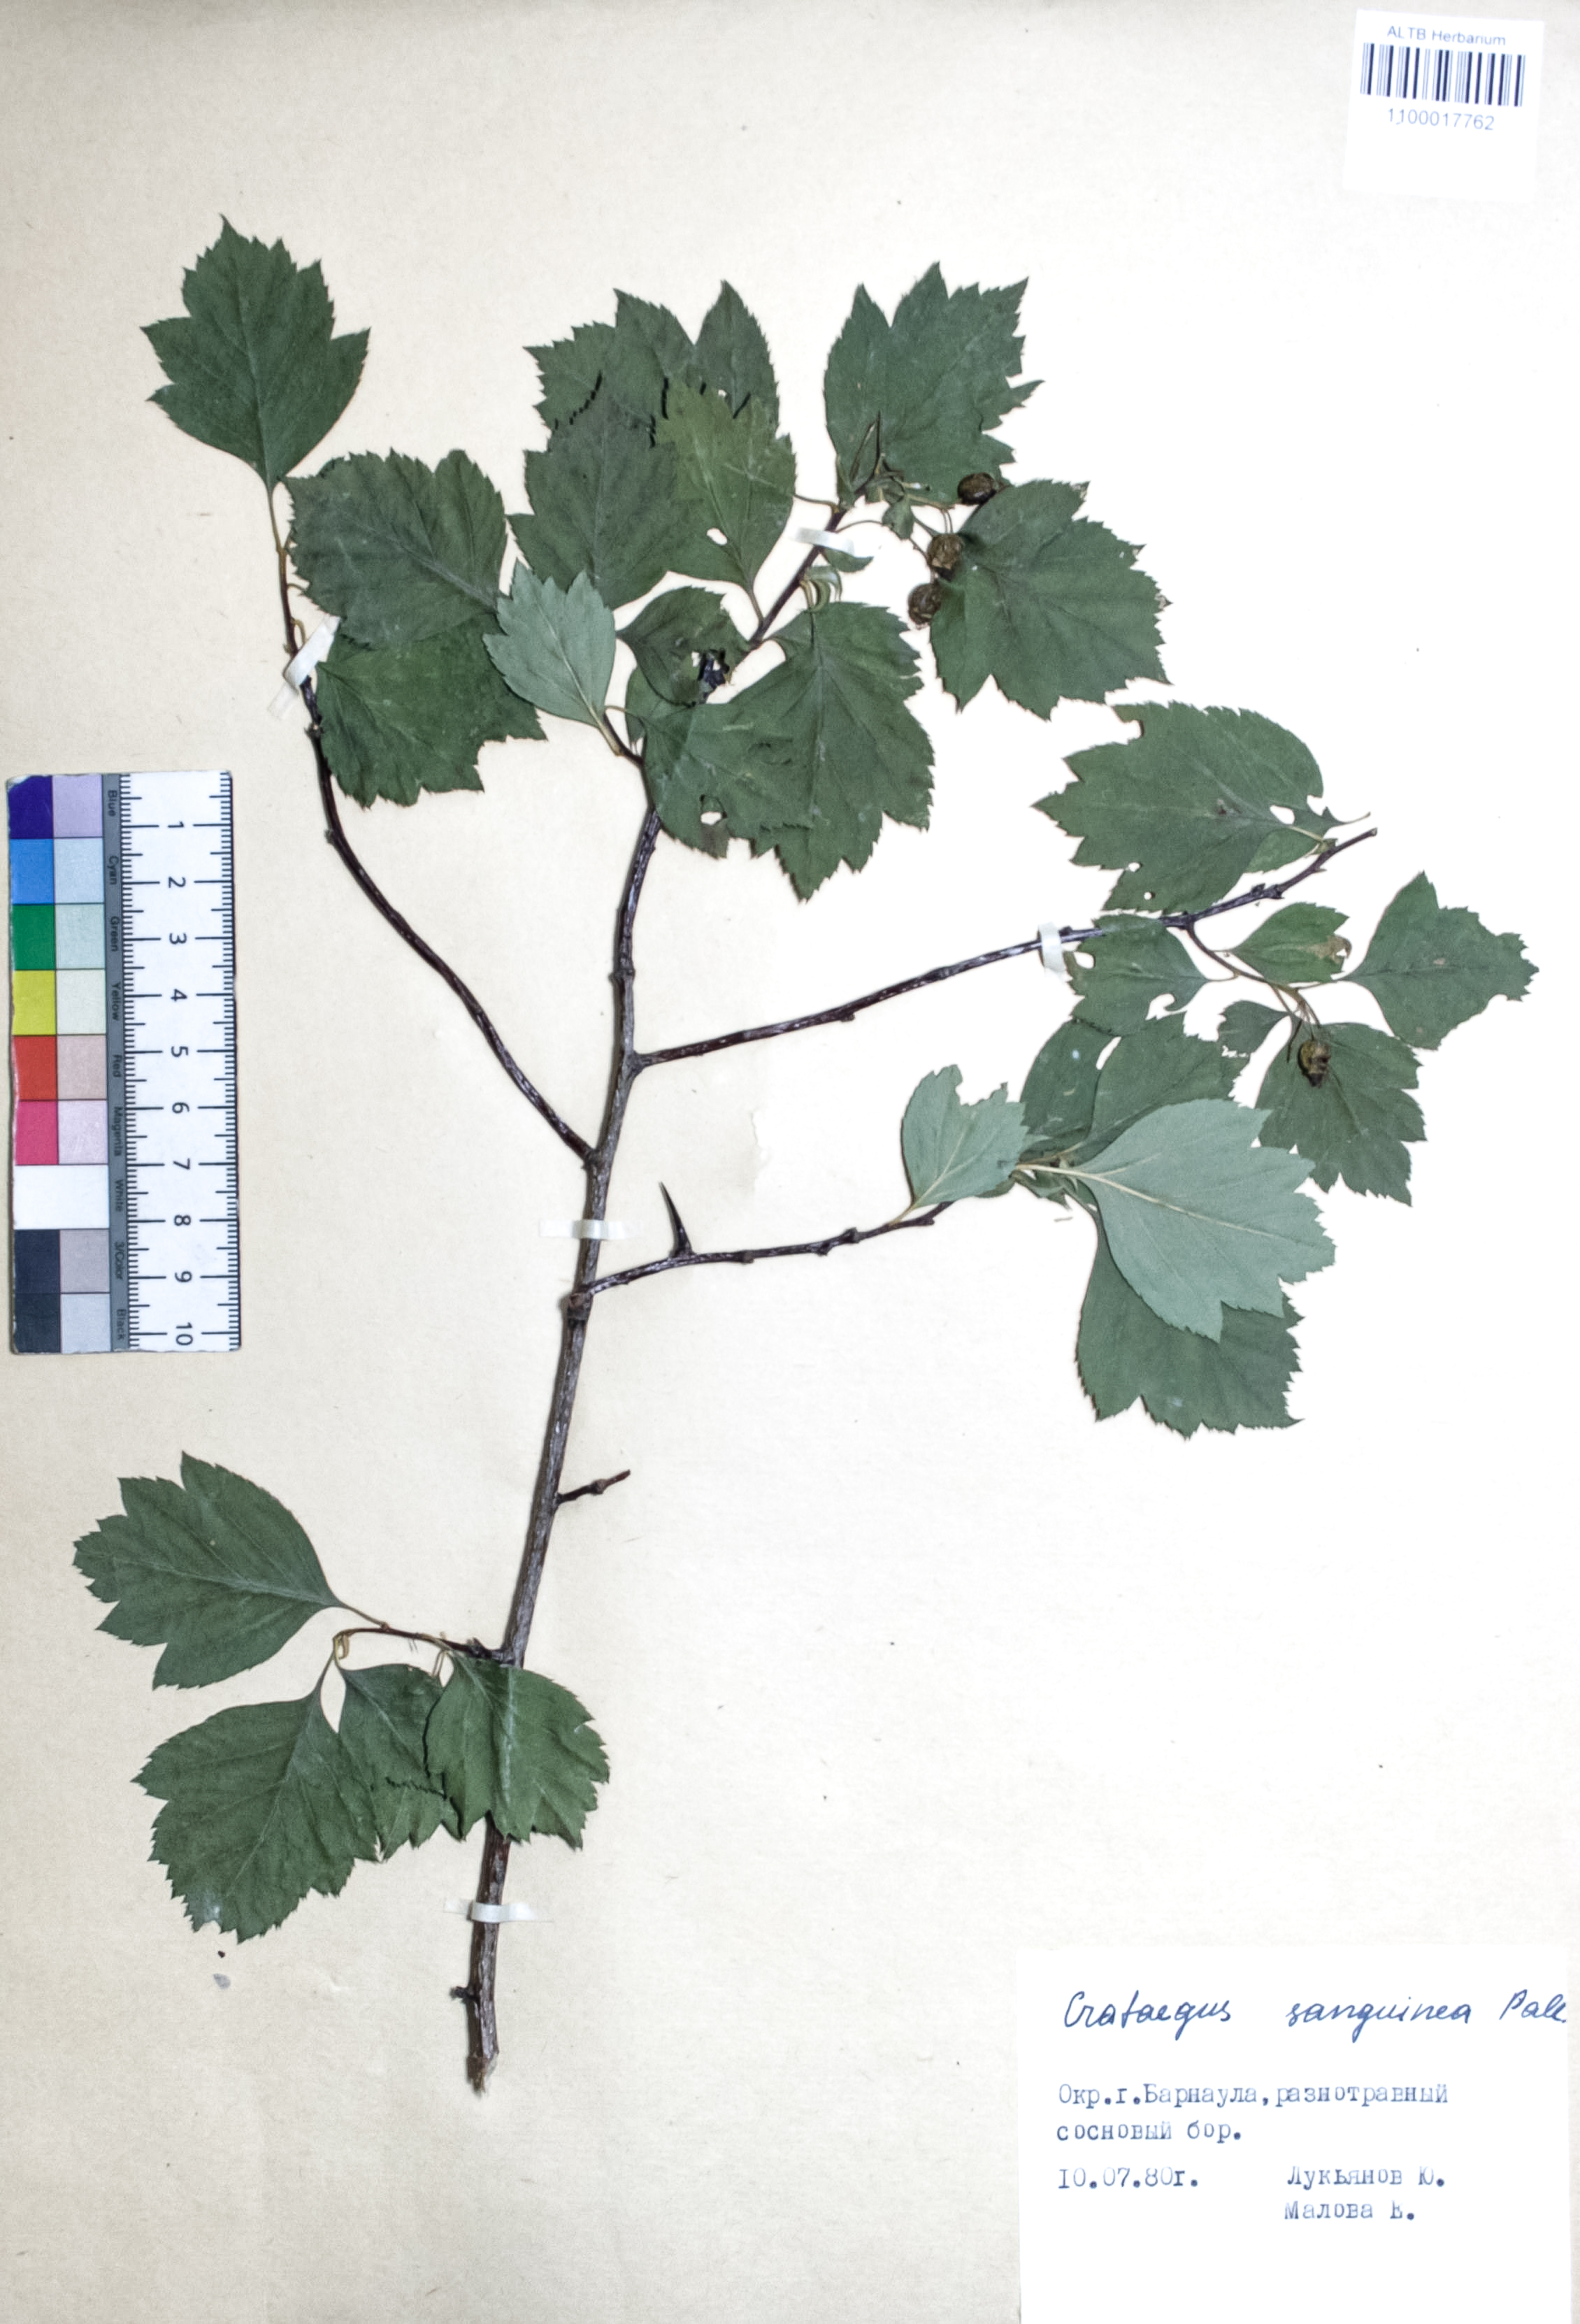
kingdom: Plantae
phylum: Tracheophyta
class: Magnoliopsida
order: Rosales
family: Rosaceae
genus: Crataegus
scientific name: Crataegus sanguinea
